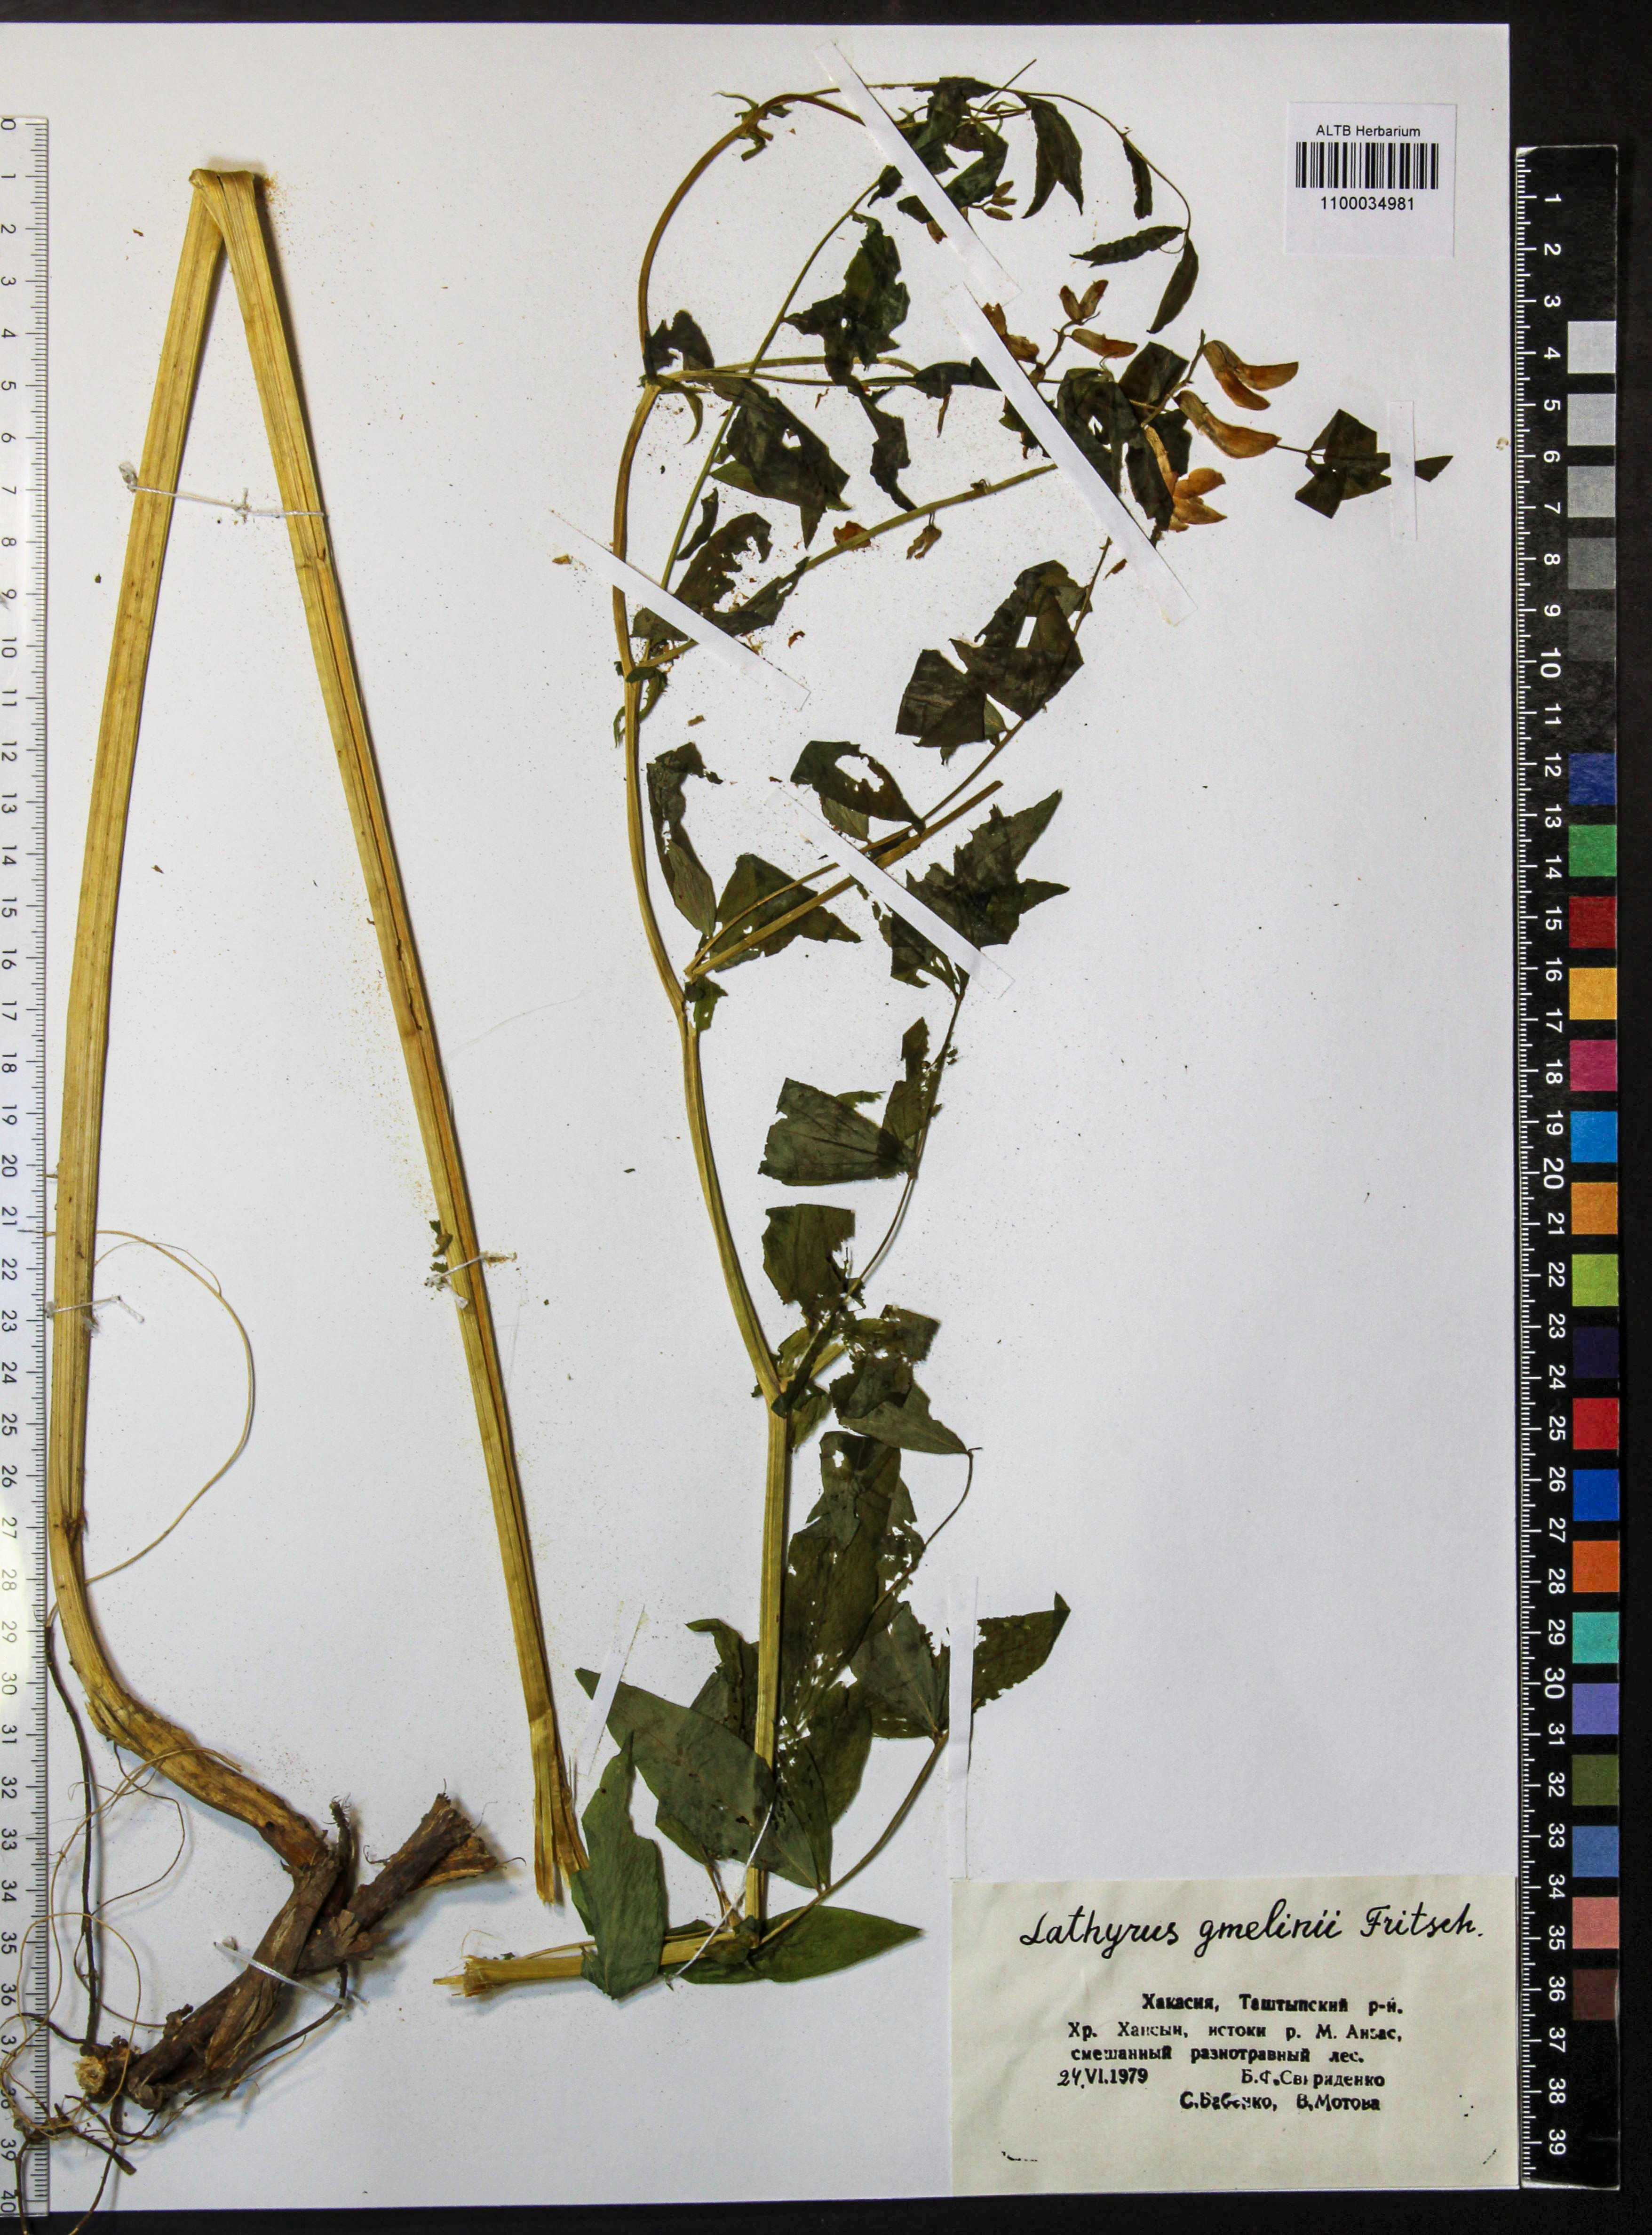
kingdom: Plantae
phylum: Tracheophyta
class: Magnoliopsida
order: Fabales
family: Fabaceae
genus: Lathyrus
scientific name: Lathyrus gmelinii
